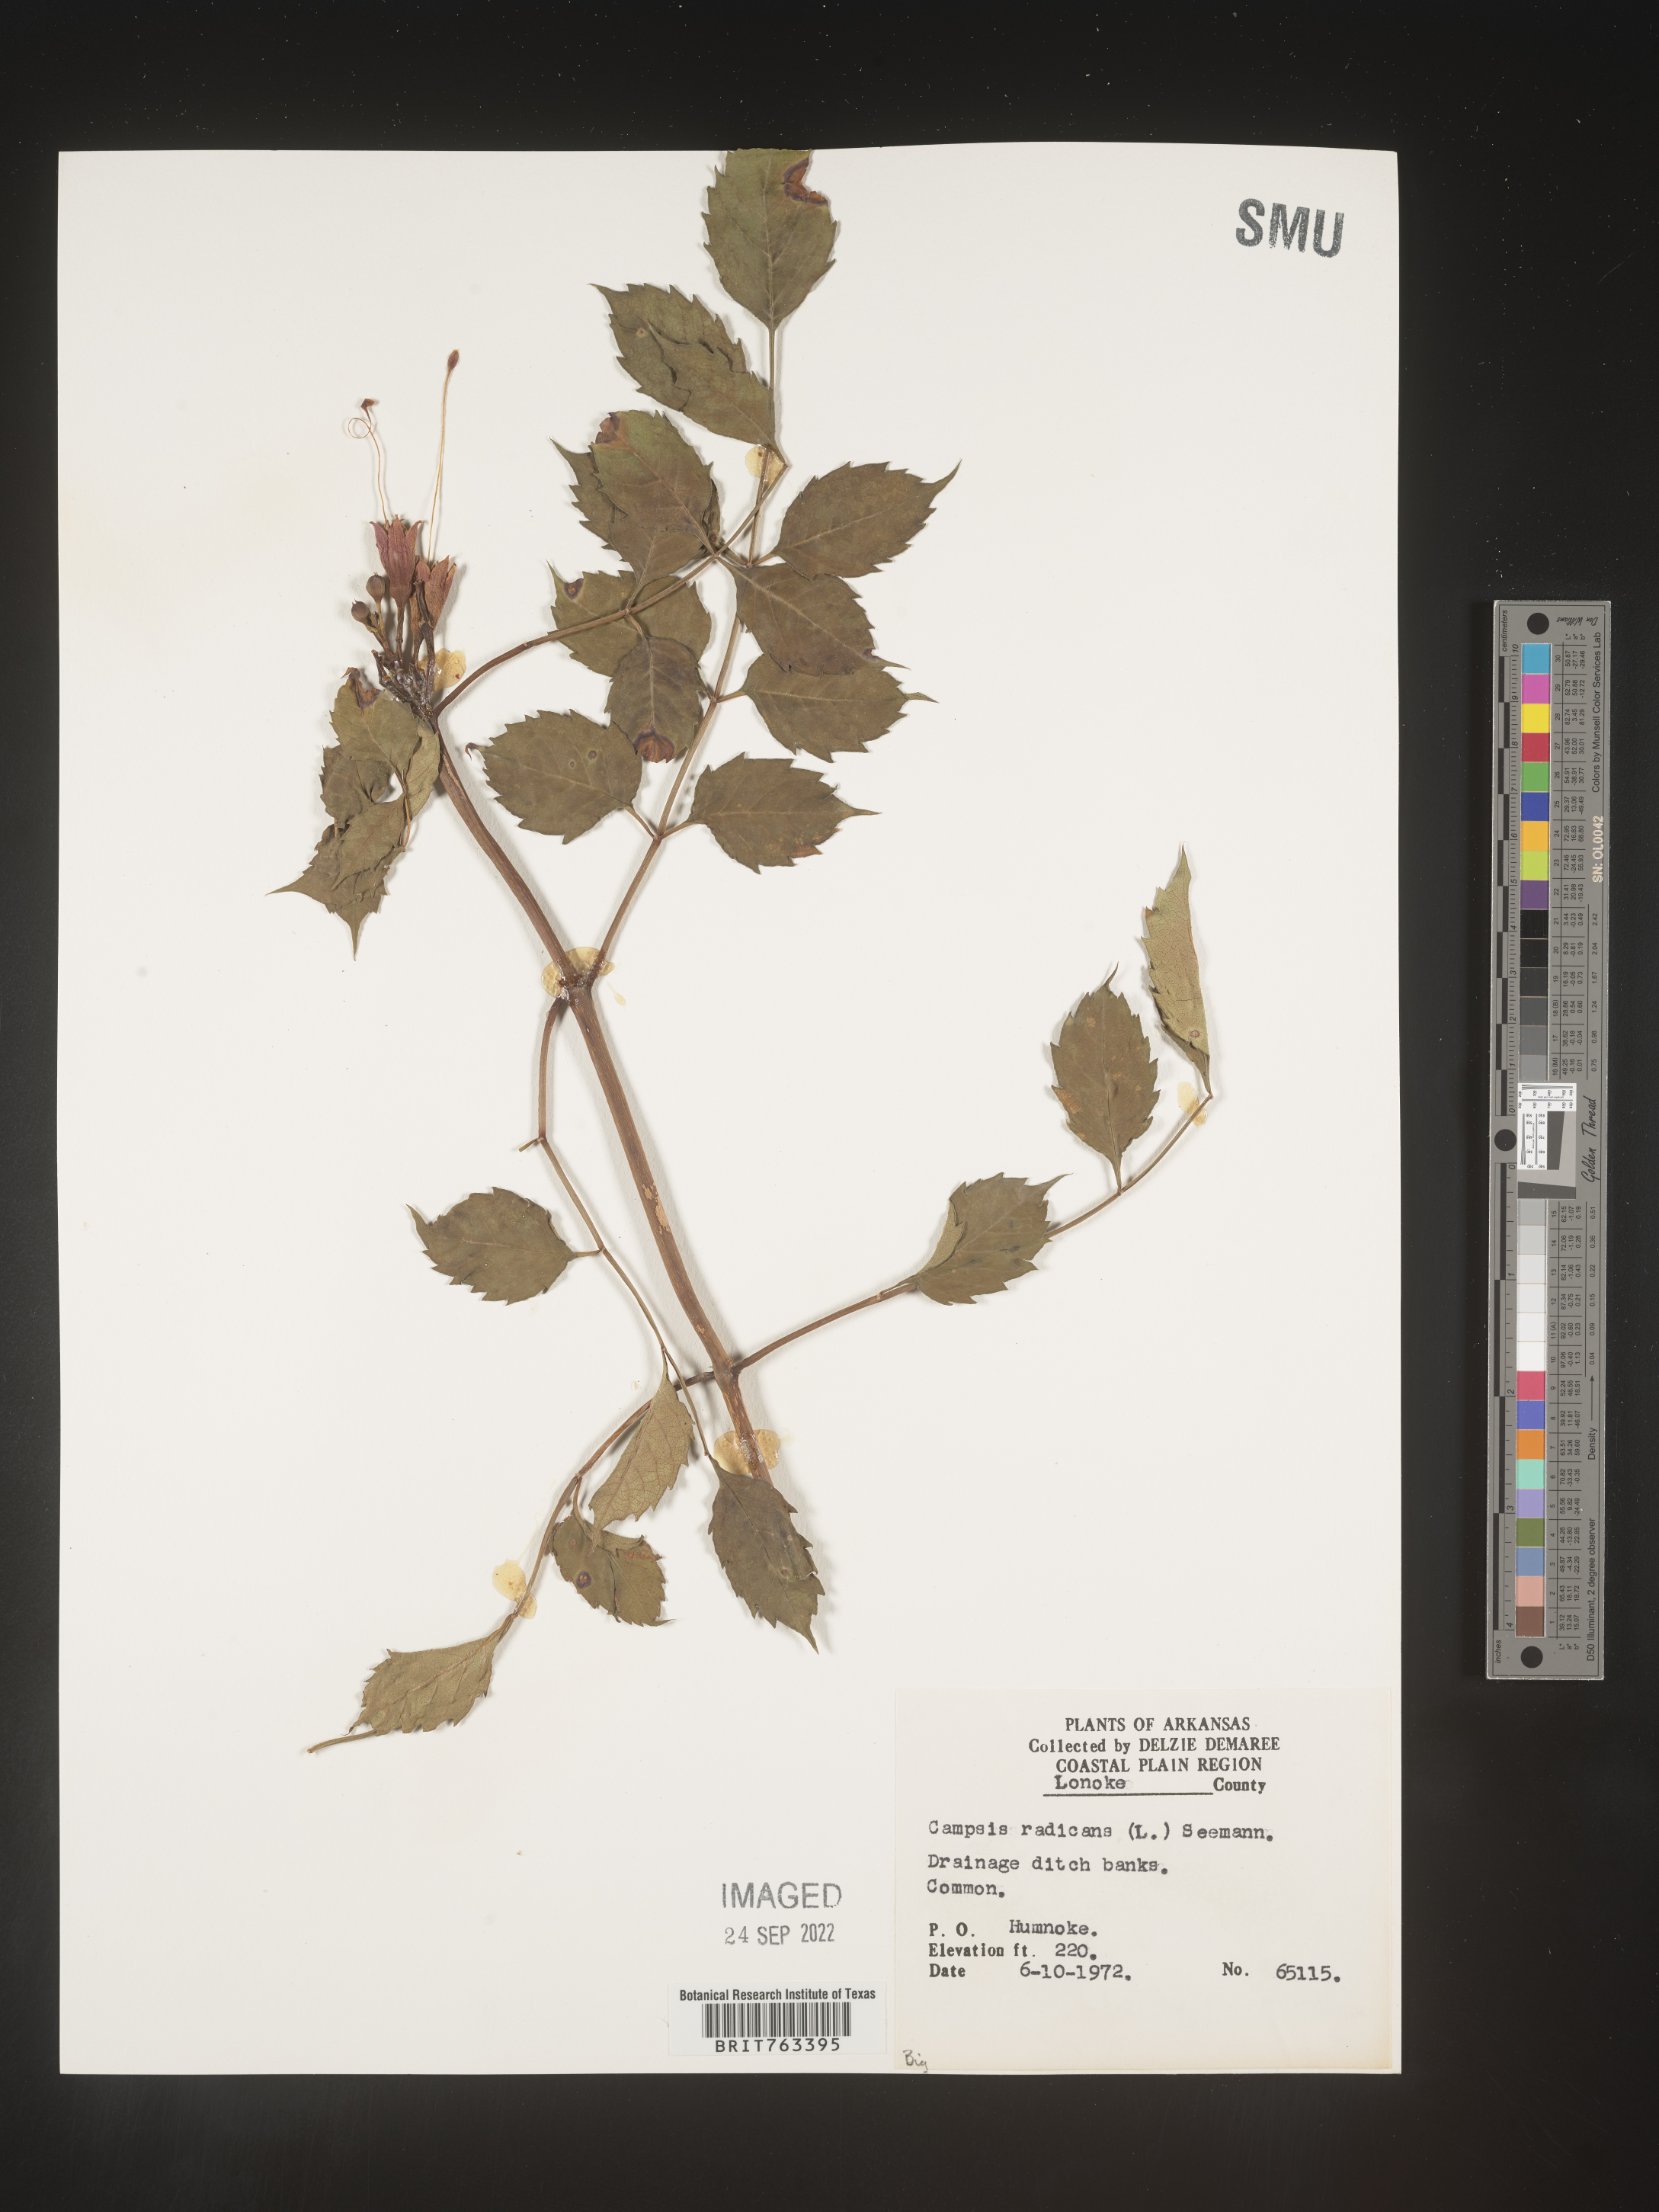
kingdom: Plantae
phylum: Tracheophyta
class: Magnoliopsida
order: Lamiales
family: Bignoniaceae
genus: Campsis
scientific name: Campsis radicans
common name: Trumpet-creeper
